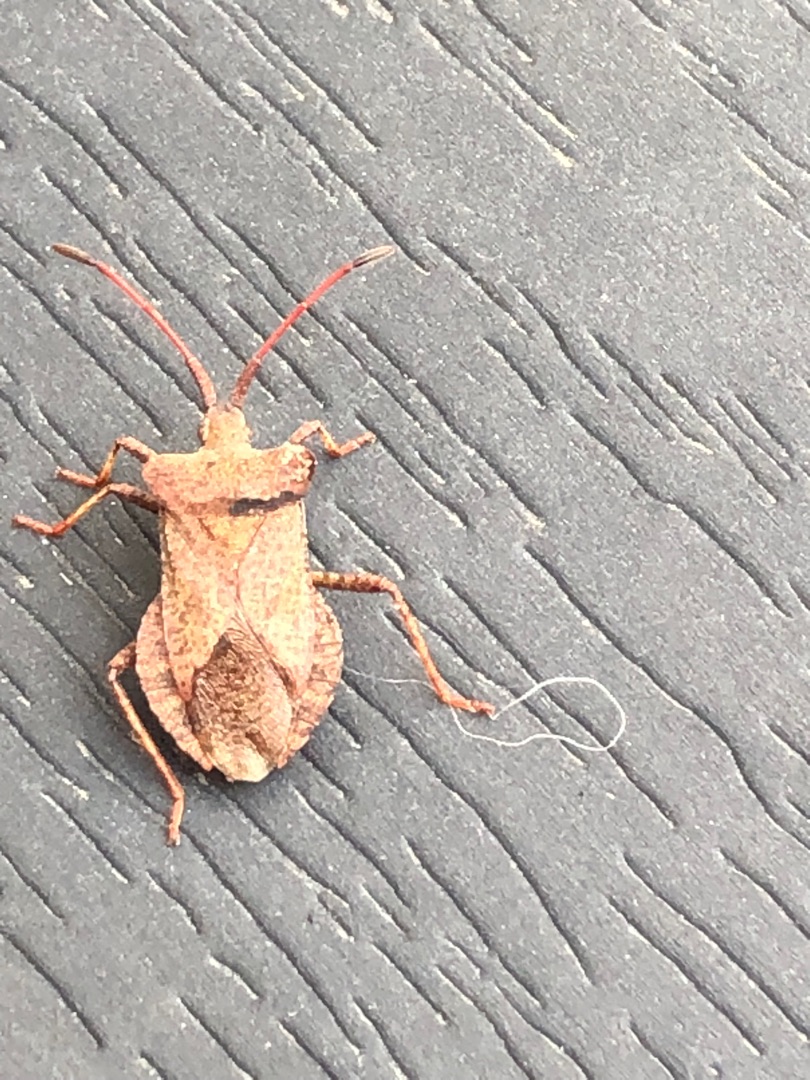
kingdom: Animalia
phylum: Arthropoda
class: Insecta
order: Hemiptera
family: Coreidae
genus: Coreus
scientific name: Coreus marginatus
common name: Skræppetæge
